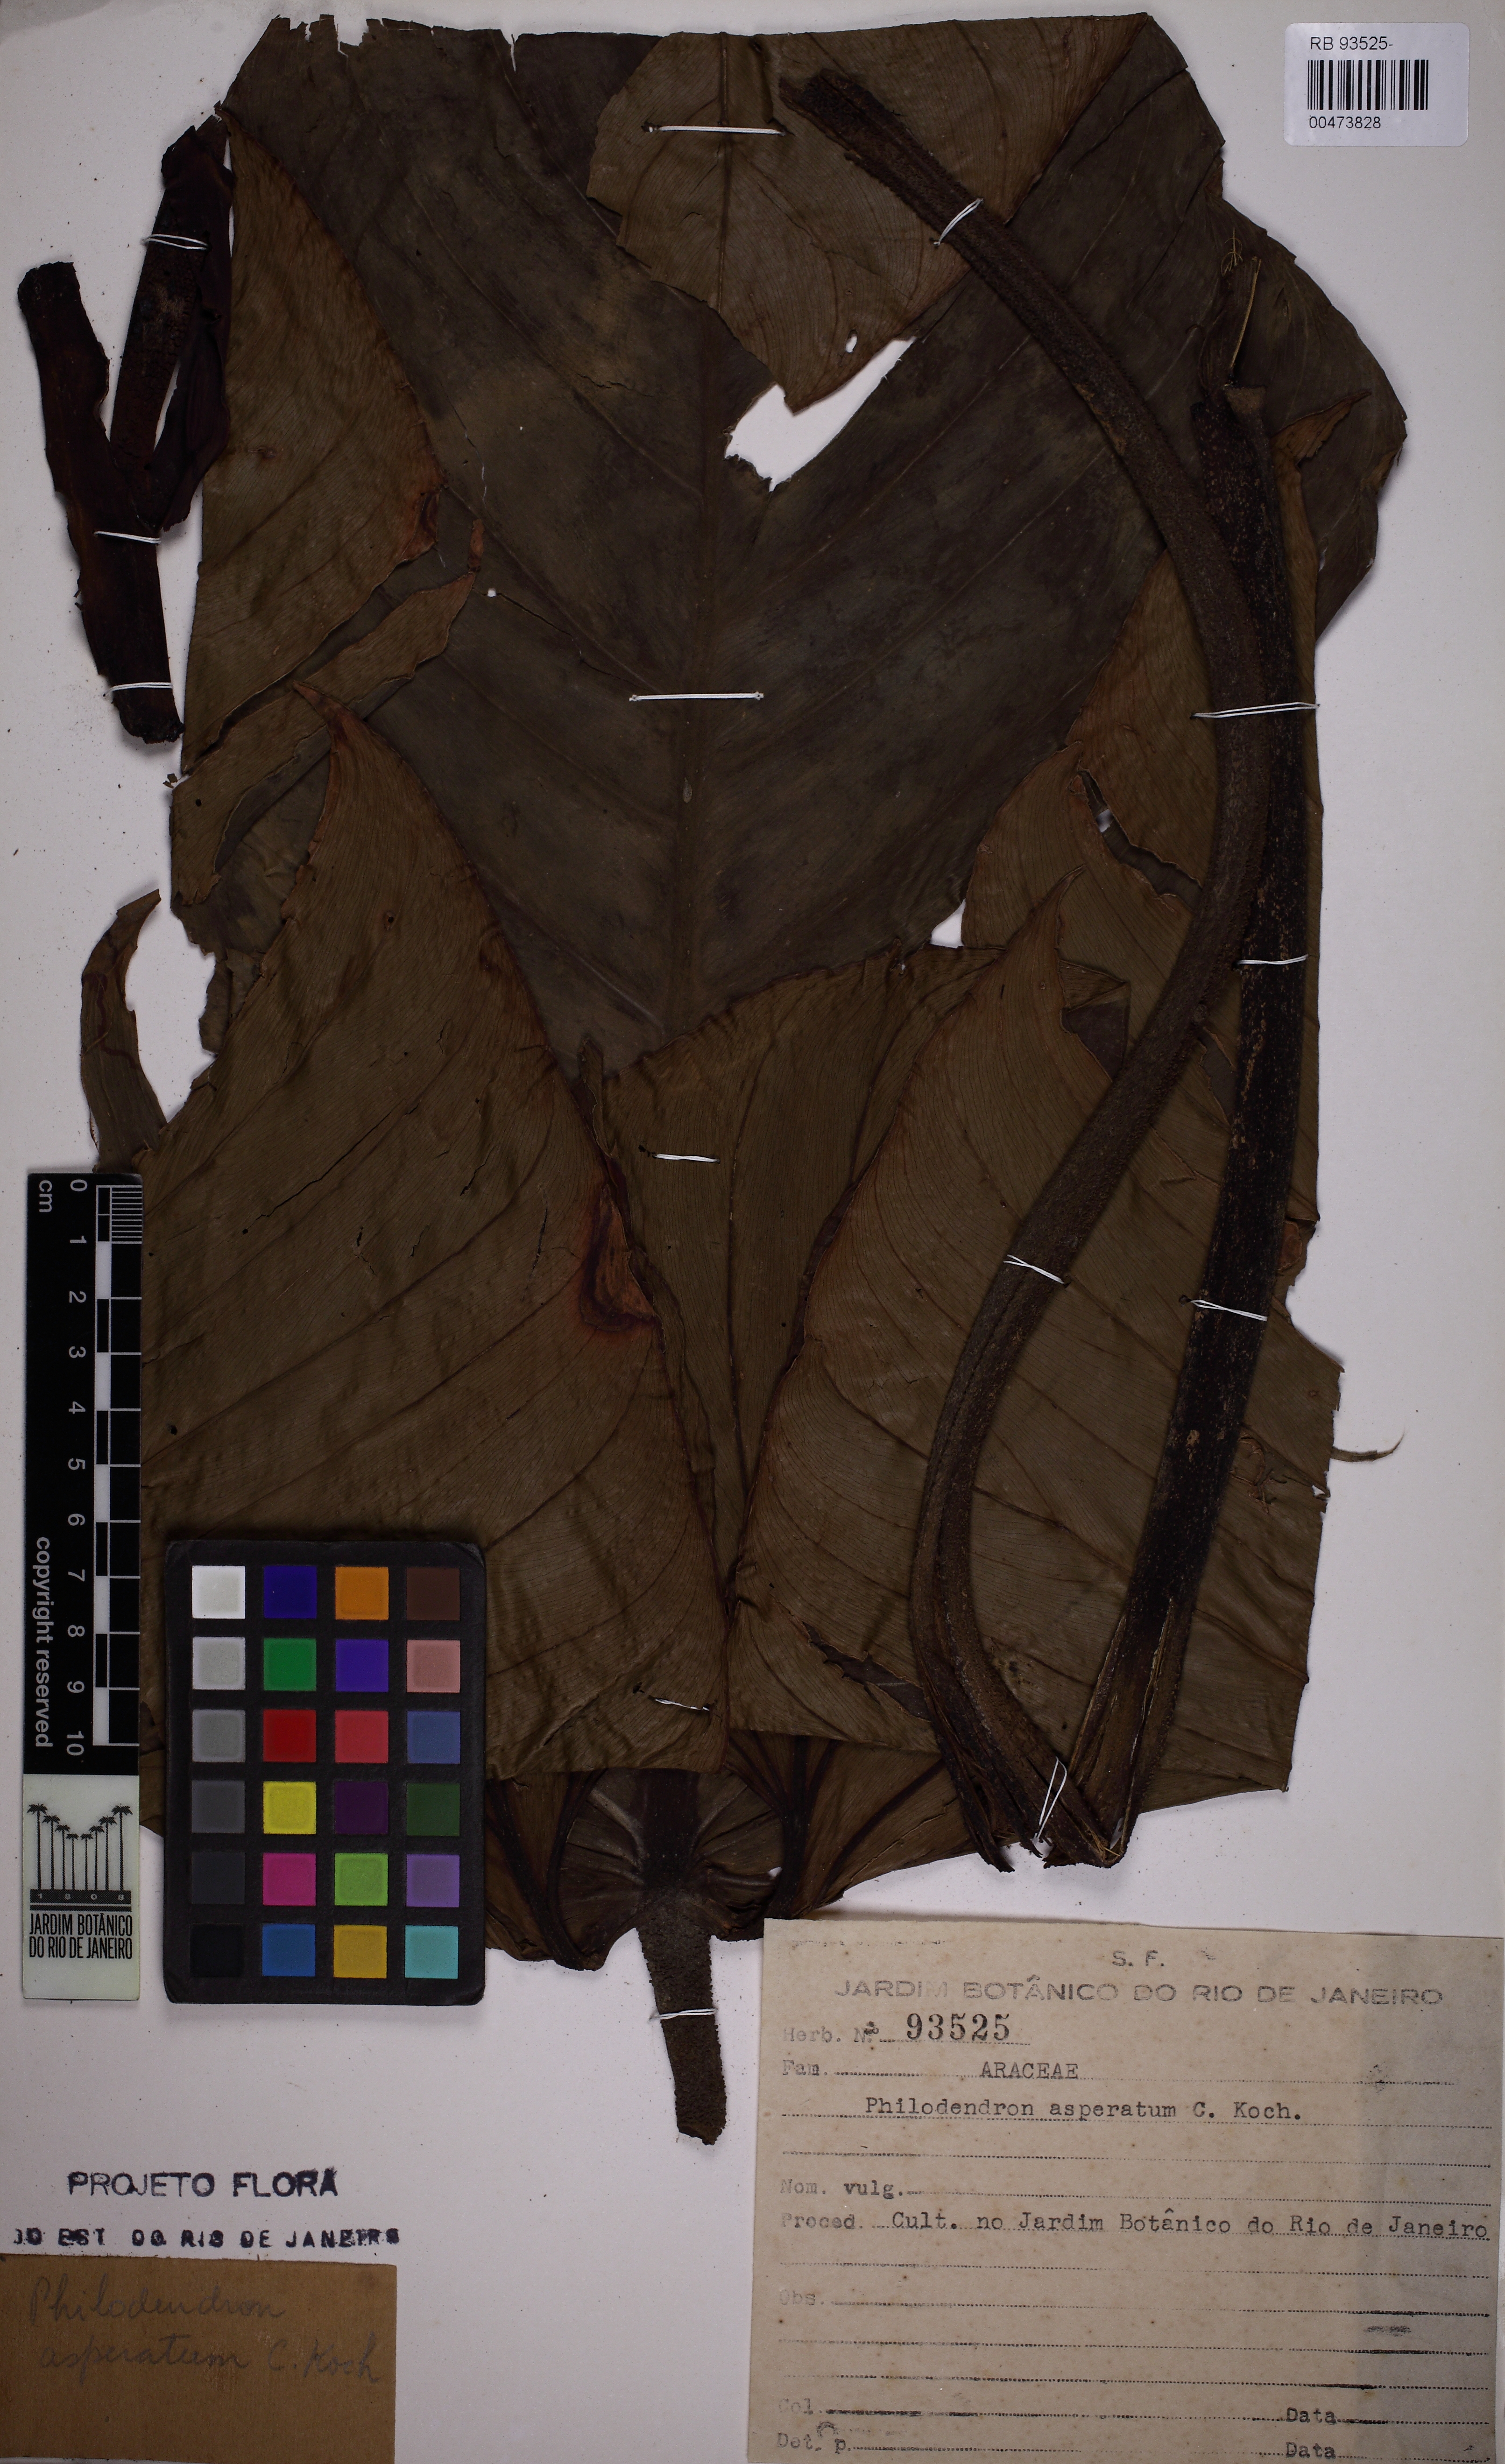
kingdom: Plantae
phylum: Tracheophyta
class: Liliopsida
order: Alismatales
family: Araceae
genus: Philodendron
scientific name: Philodendron ornatum
